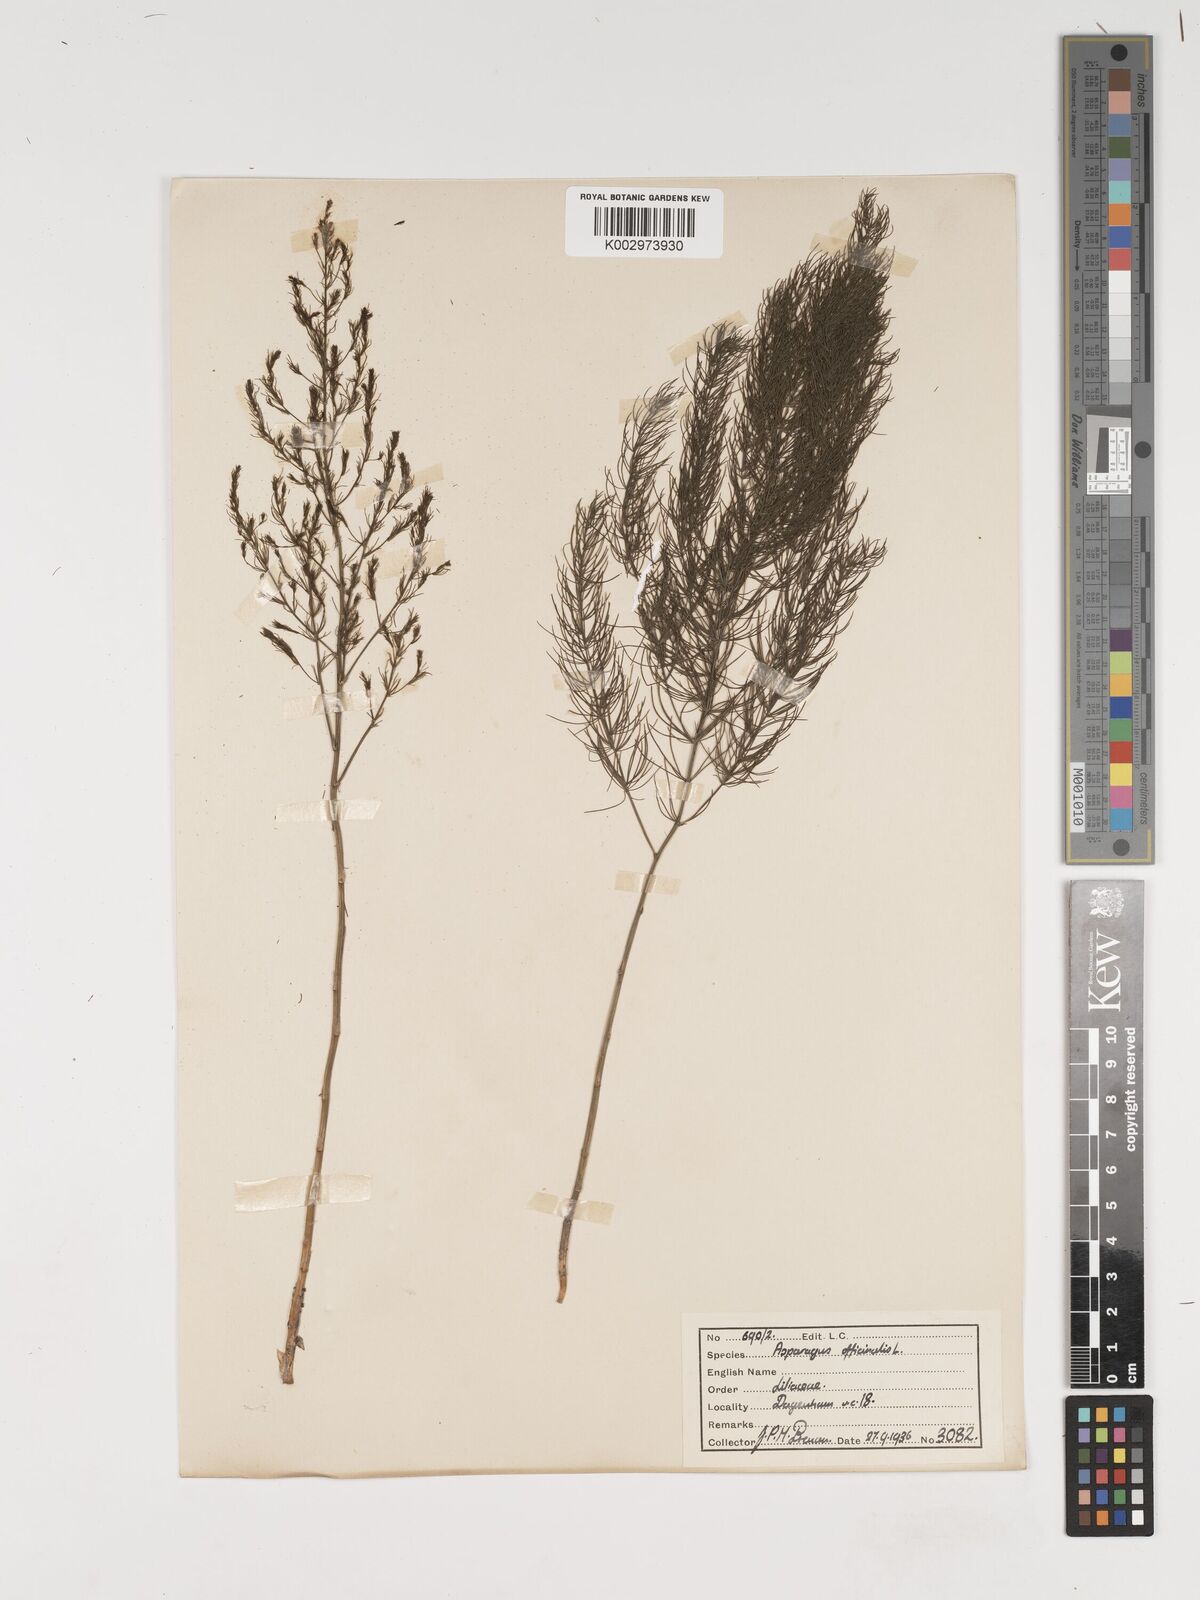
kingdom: Plantae
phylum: Tracheophyta
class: Liliopsida
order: Asparagales
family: Asparagaceae
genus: Asparagus
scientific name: Asparagus officinalis
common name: Garden asparagus
